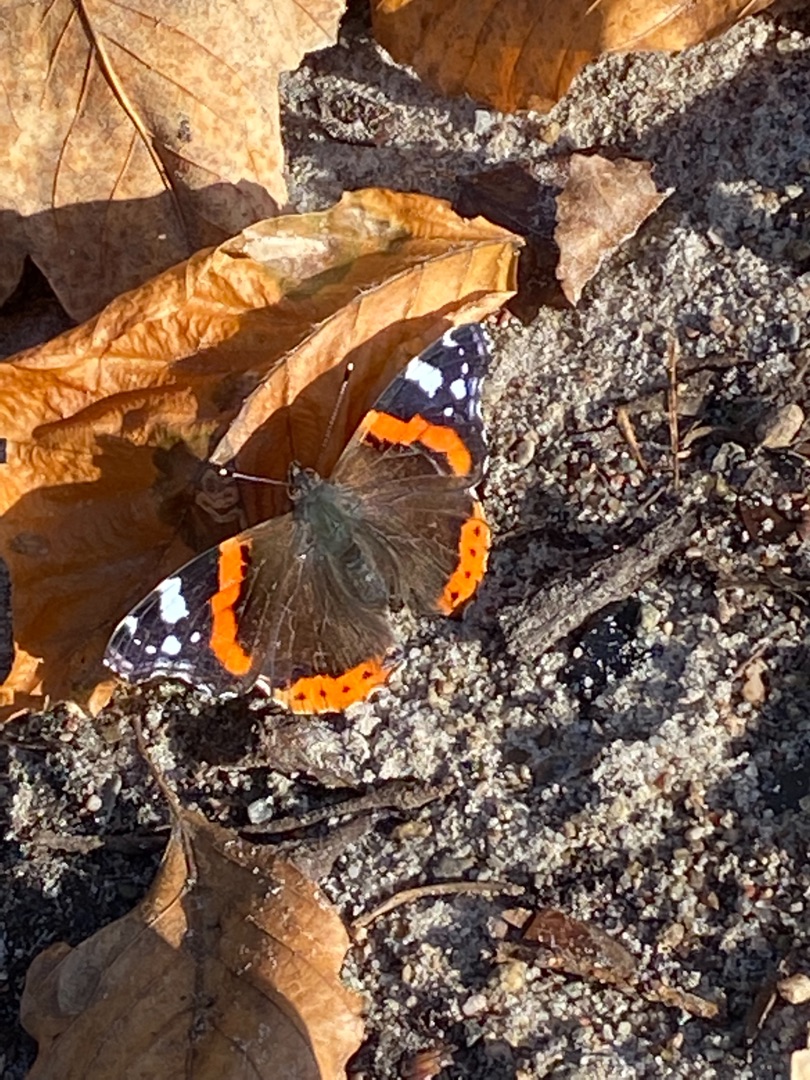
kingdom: Animalia
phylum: Arthropoda
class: Insecta
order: Lepidoptera
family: Nymphalidae
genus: Vanessa
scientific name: Vanessa atalanta
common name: Admiral
